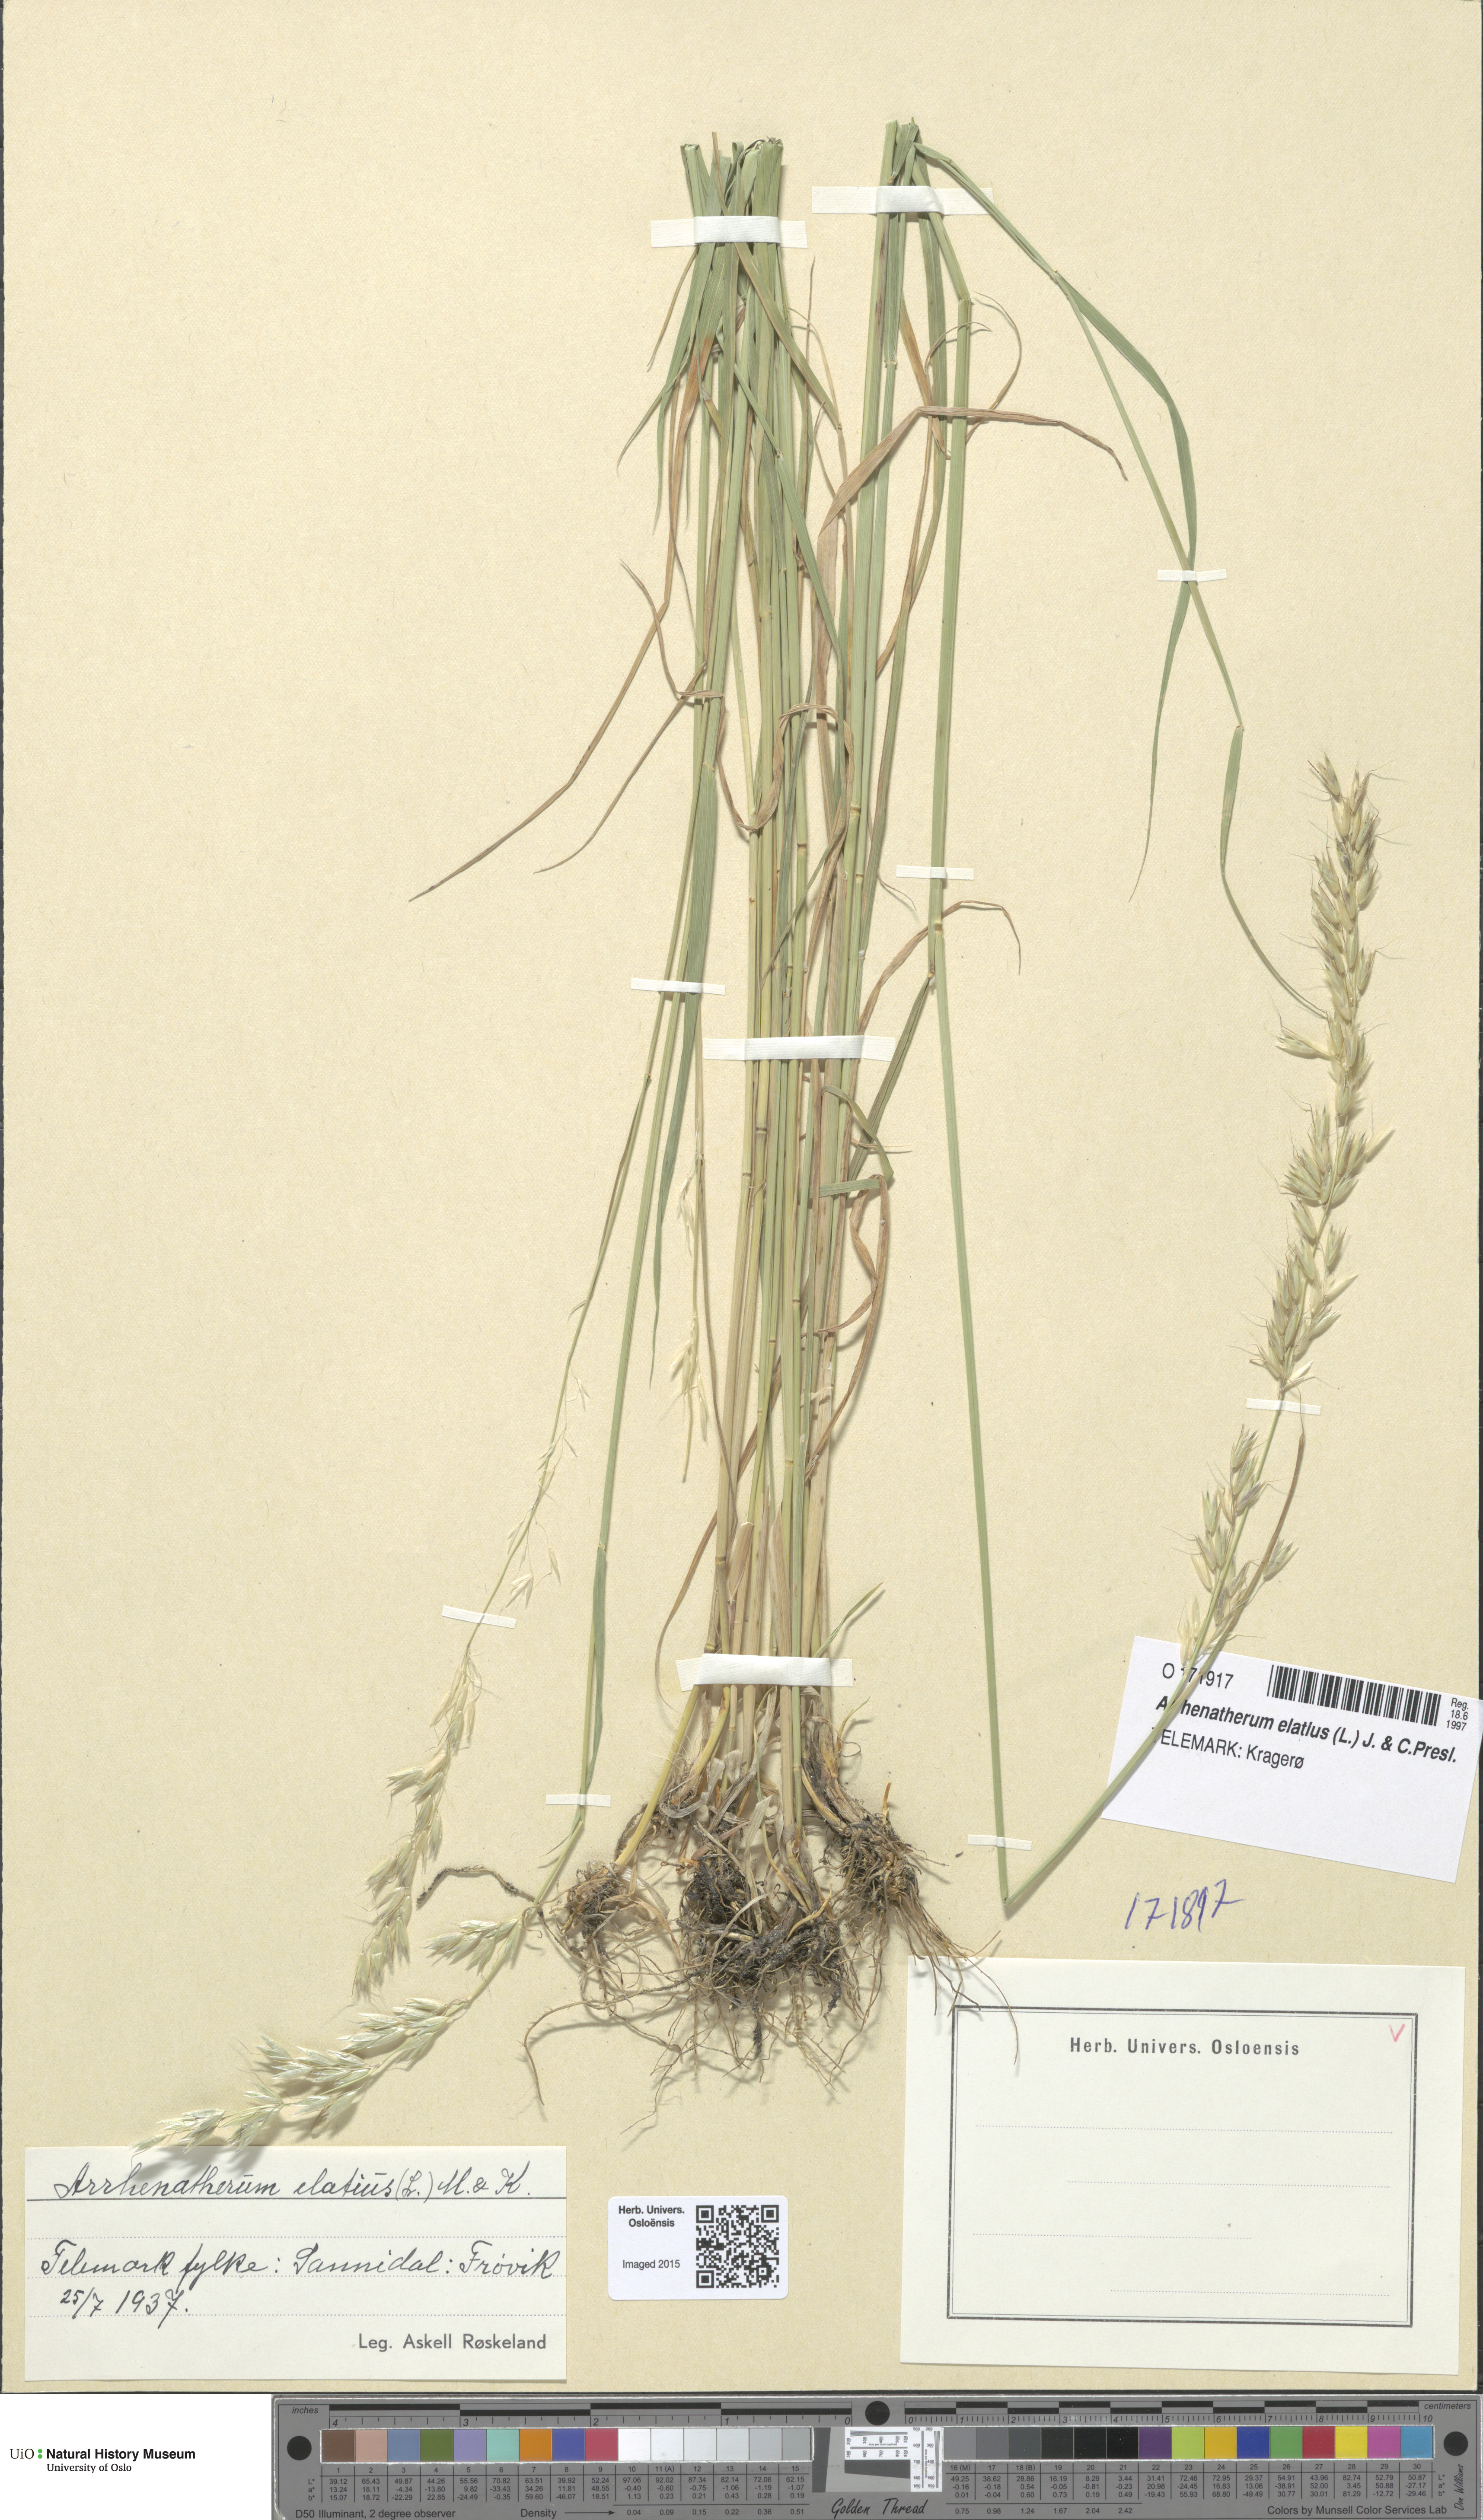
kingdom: Plantae
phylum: Tracheophyta
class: Liliopsida
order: Poales
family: Poaceae
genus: Arrhenatherum
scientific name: Arrhenatherum elatius
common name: Tall oatgrass
